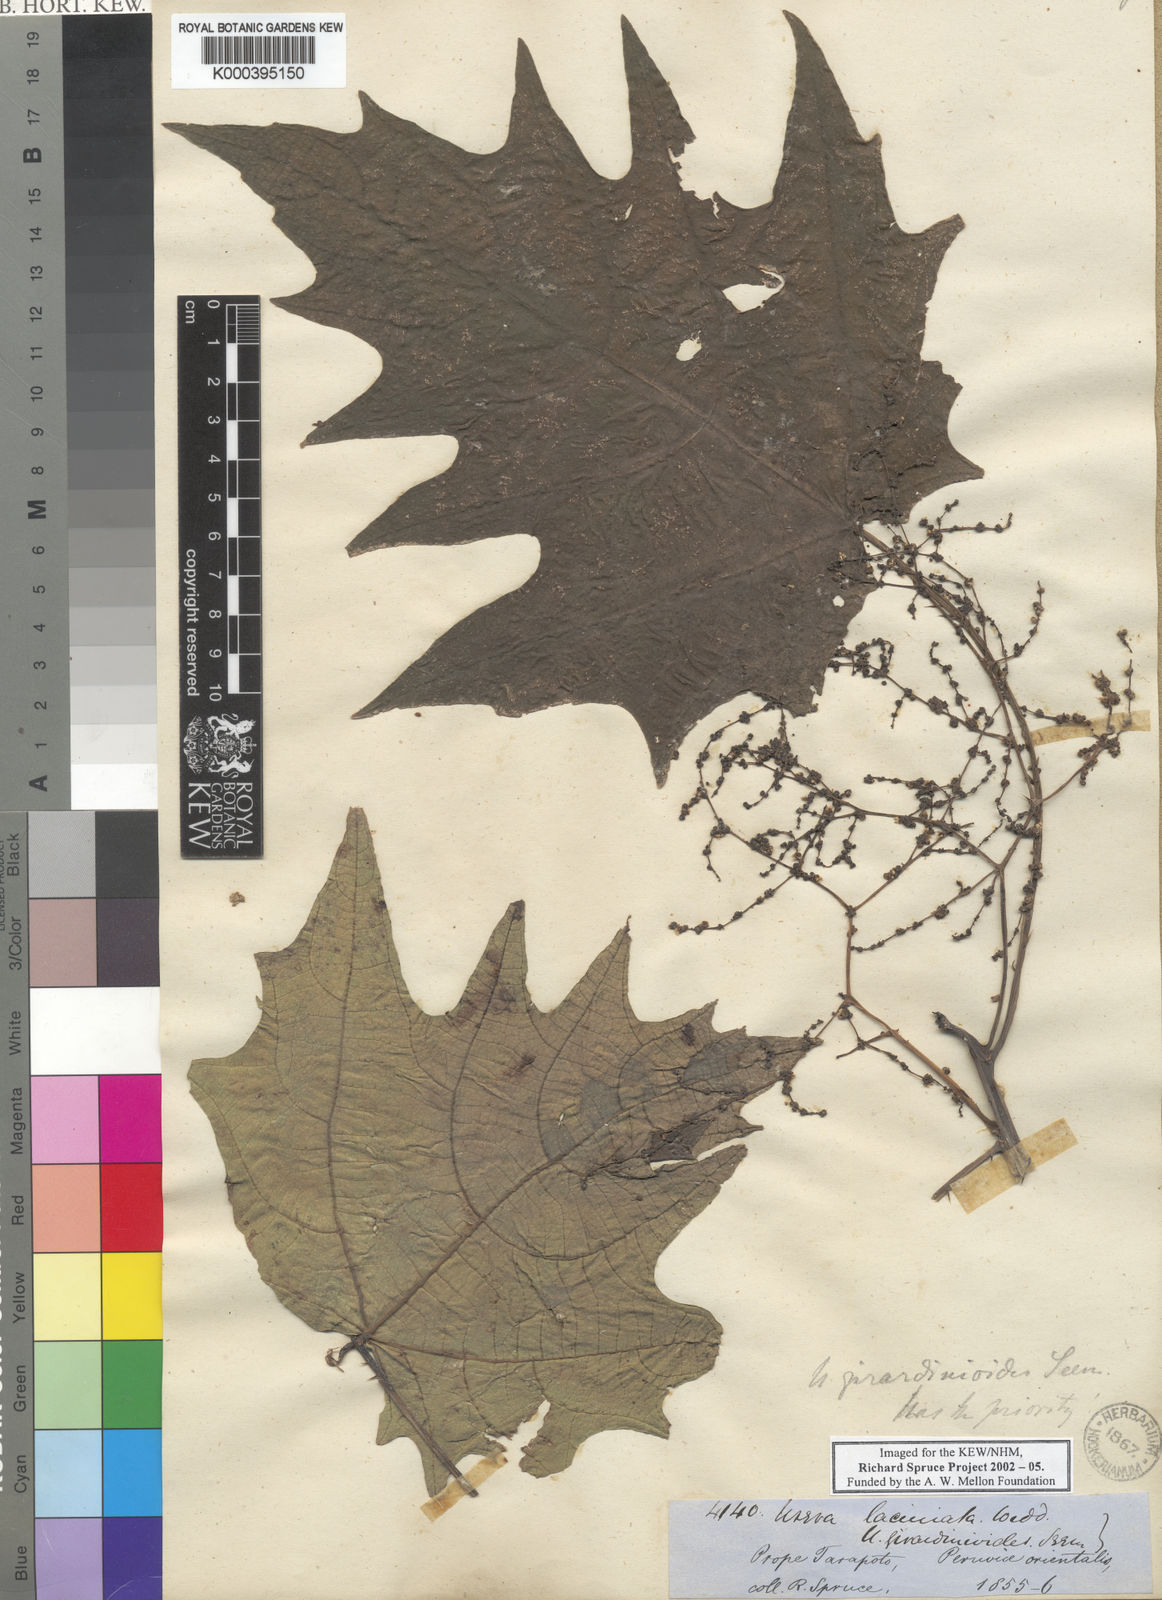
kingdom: Plantae
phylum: Tracheophyta
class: Magnoliopsida
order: Rosales
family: Urticaceae
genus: Urera
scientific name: Urera laciniata
